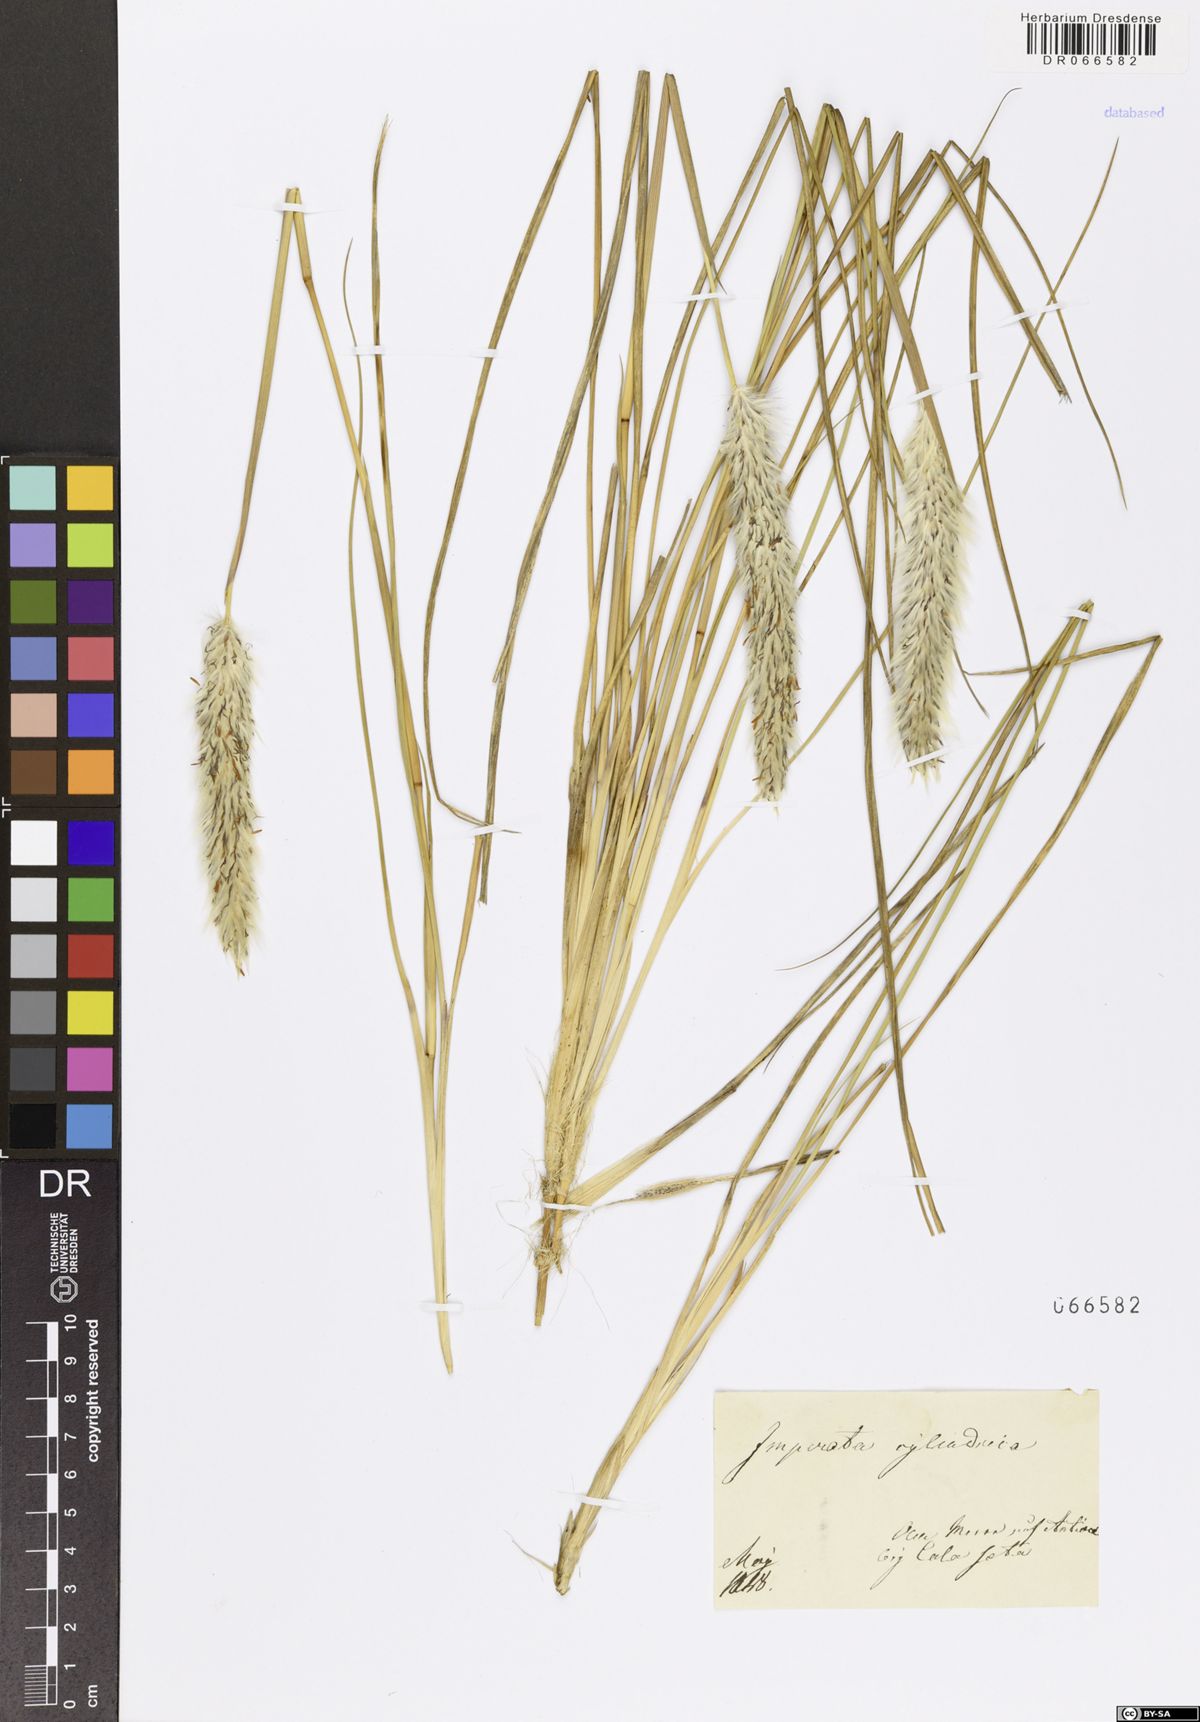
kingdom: Plantae
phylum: Tracheophyta
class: Liliopsida
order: Poales
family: Poaceae
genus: Imperata
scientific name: Imperata cylindrica
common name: Cogongrass
